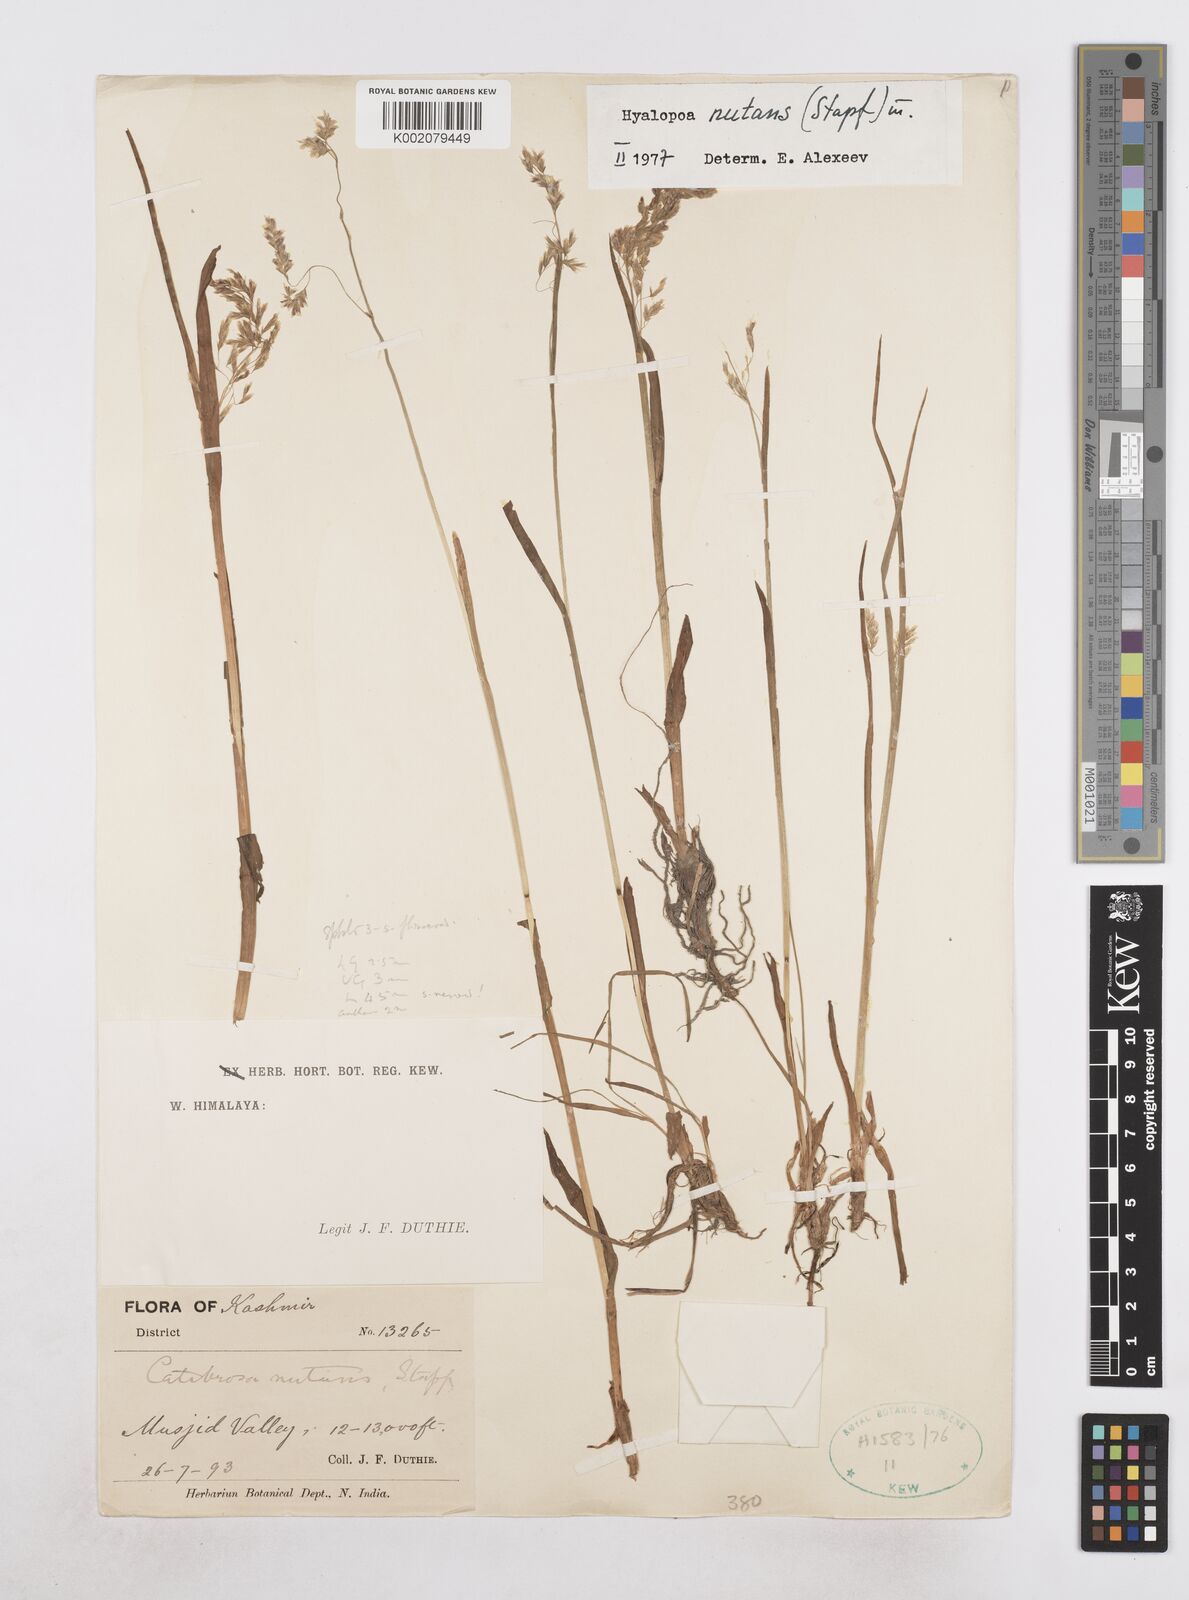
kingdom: Plantae
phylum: Tracheophyta
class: Liliopsida
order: Poales
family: Poaceae
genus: Hyalopoa
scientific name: Hyalopoa nutans
